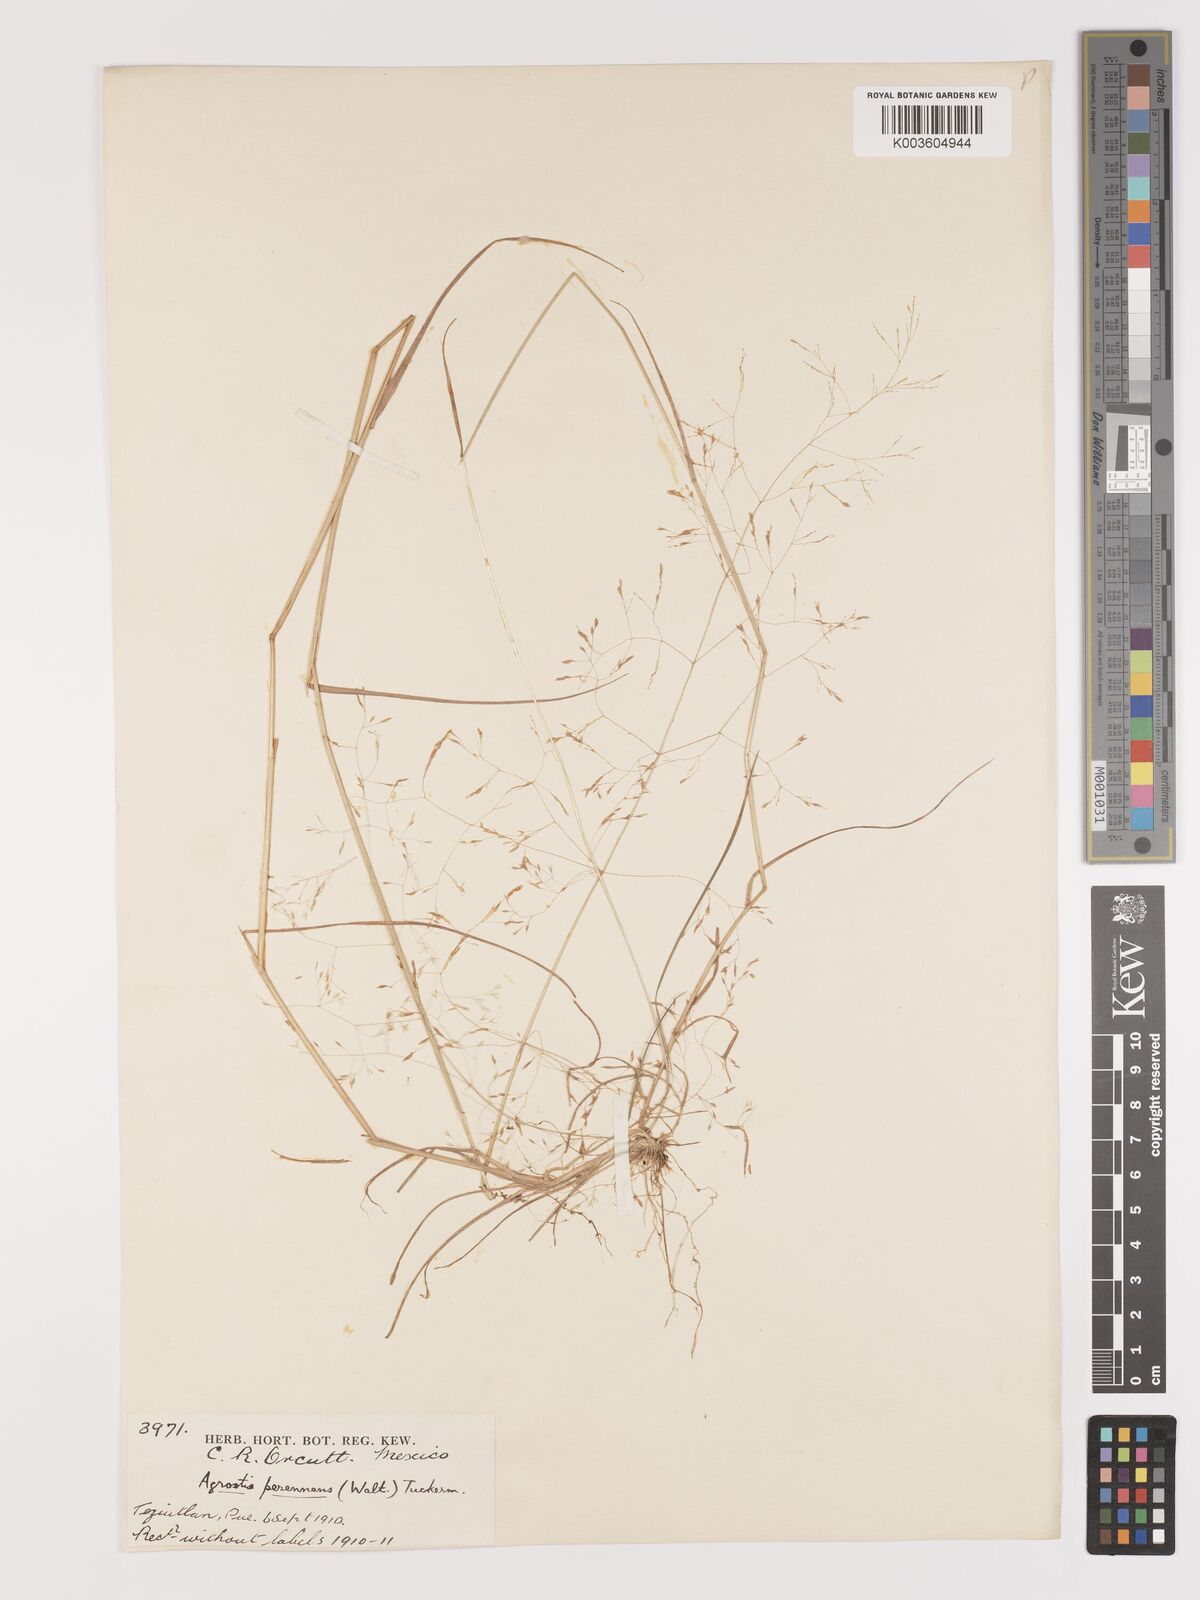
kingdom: Plantae
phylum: Tracheophyta
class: Liliopsida
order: Poales
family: Poaceae
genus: Agrostis
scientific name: Agrostis perennans
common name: Autumn bent
